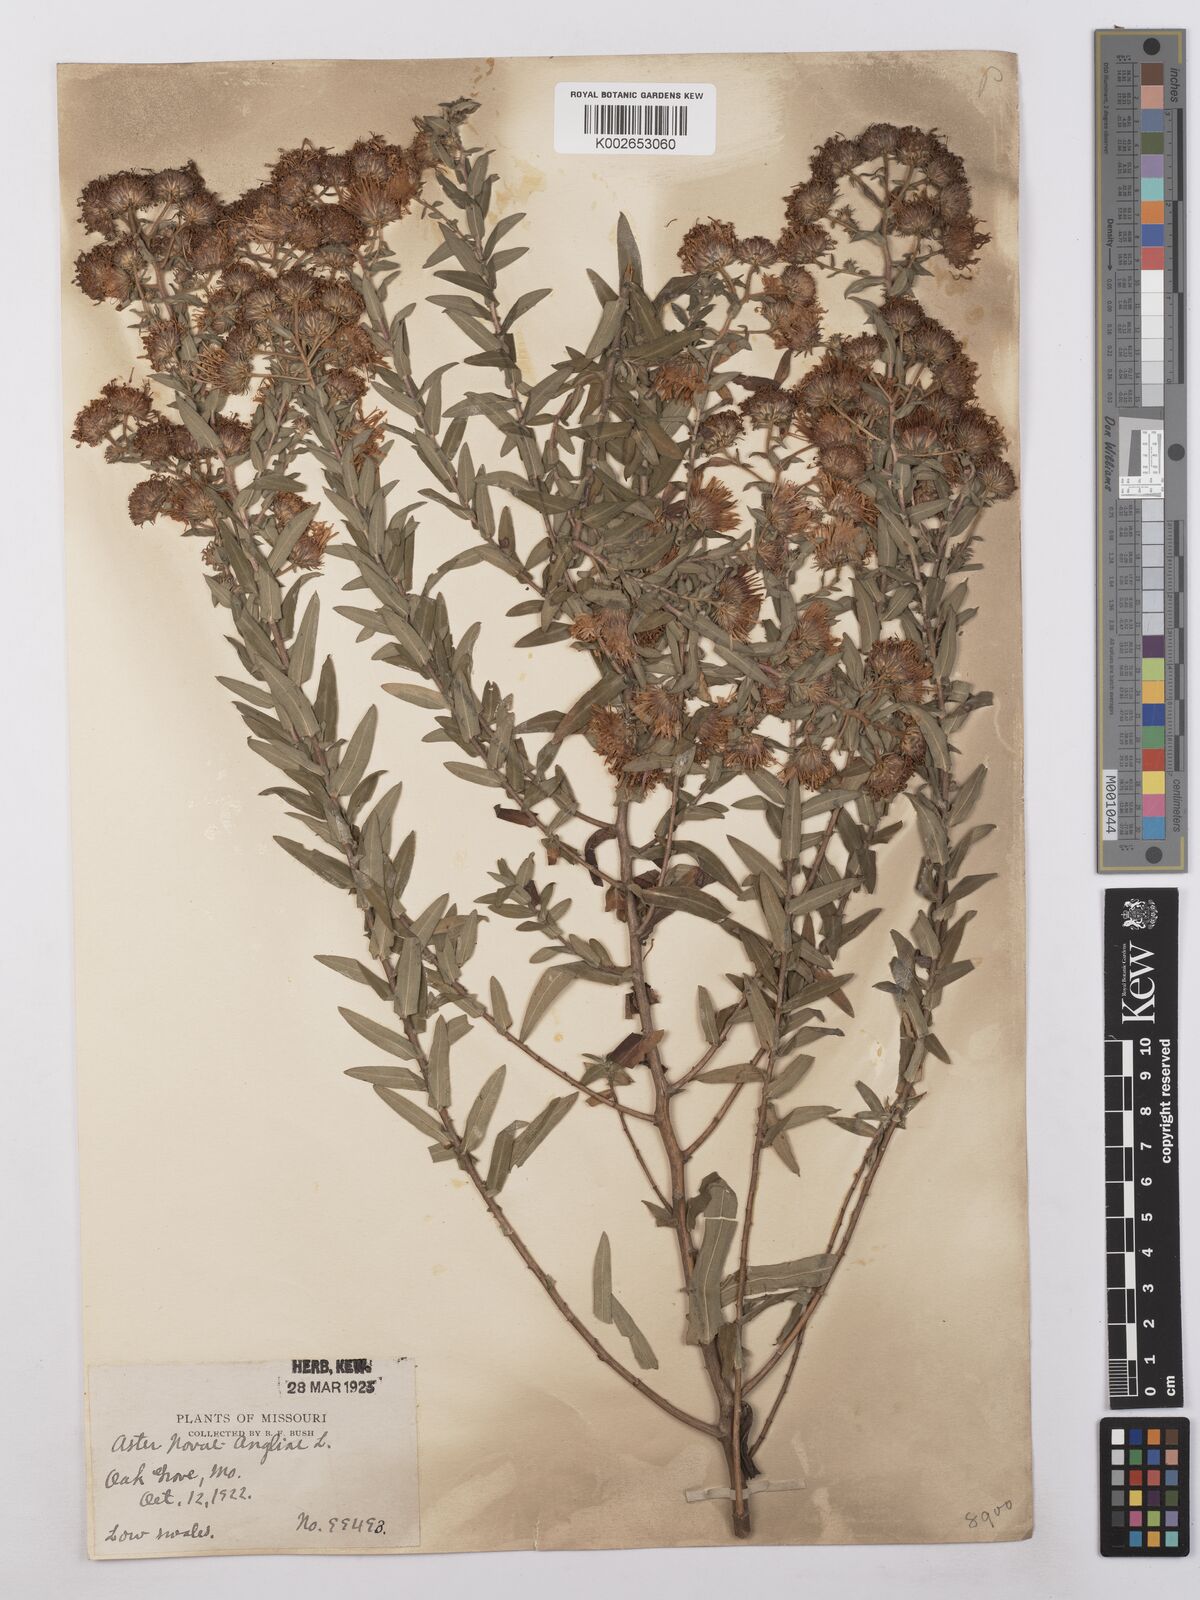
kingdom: Plantae
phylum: Tracheophyta
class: Magnoliopsida
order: Asterales
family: Asteraceae
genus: Symphyotrichum
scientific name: Symphyotrichum novae-angliae
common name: Michaelmas daisy
